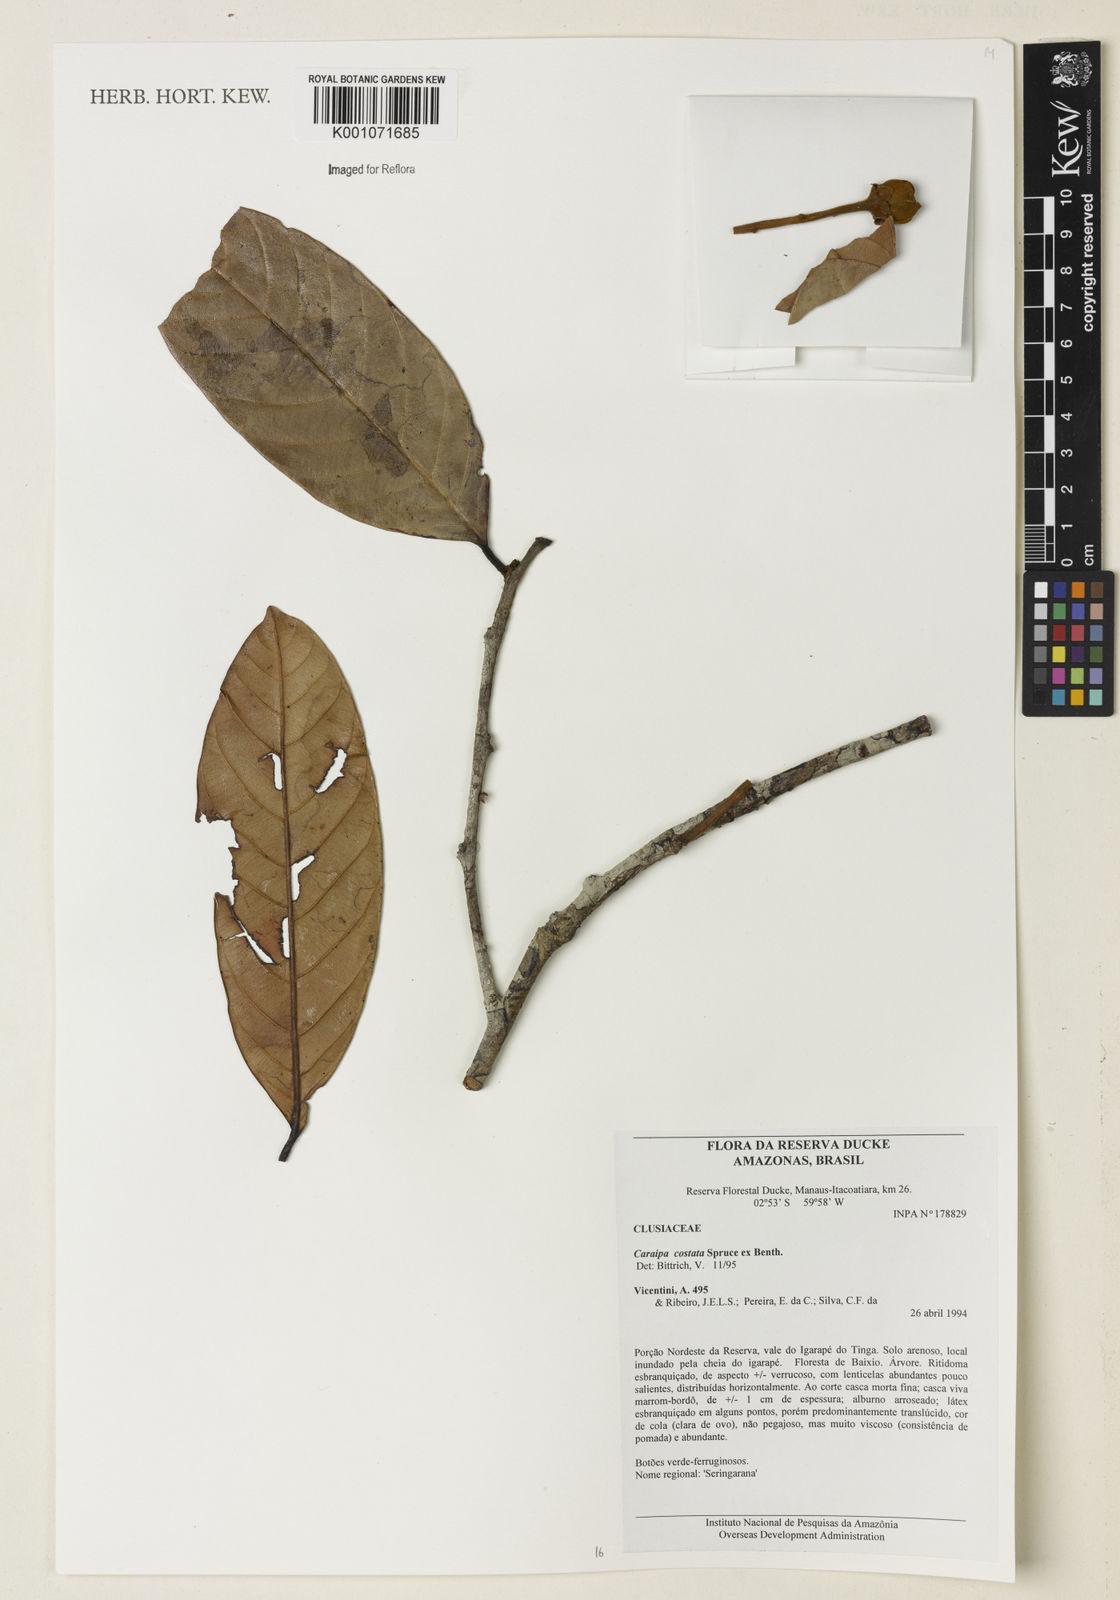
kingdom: Plantae
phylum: Tracheophyta
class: Magnoliopsida
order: Malpighiales
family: Calophyllaceae
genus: Caraipa
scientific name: Caraipa costata
